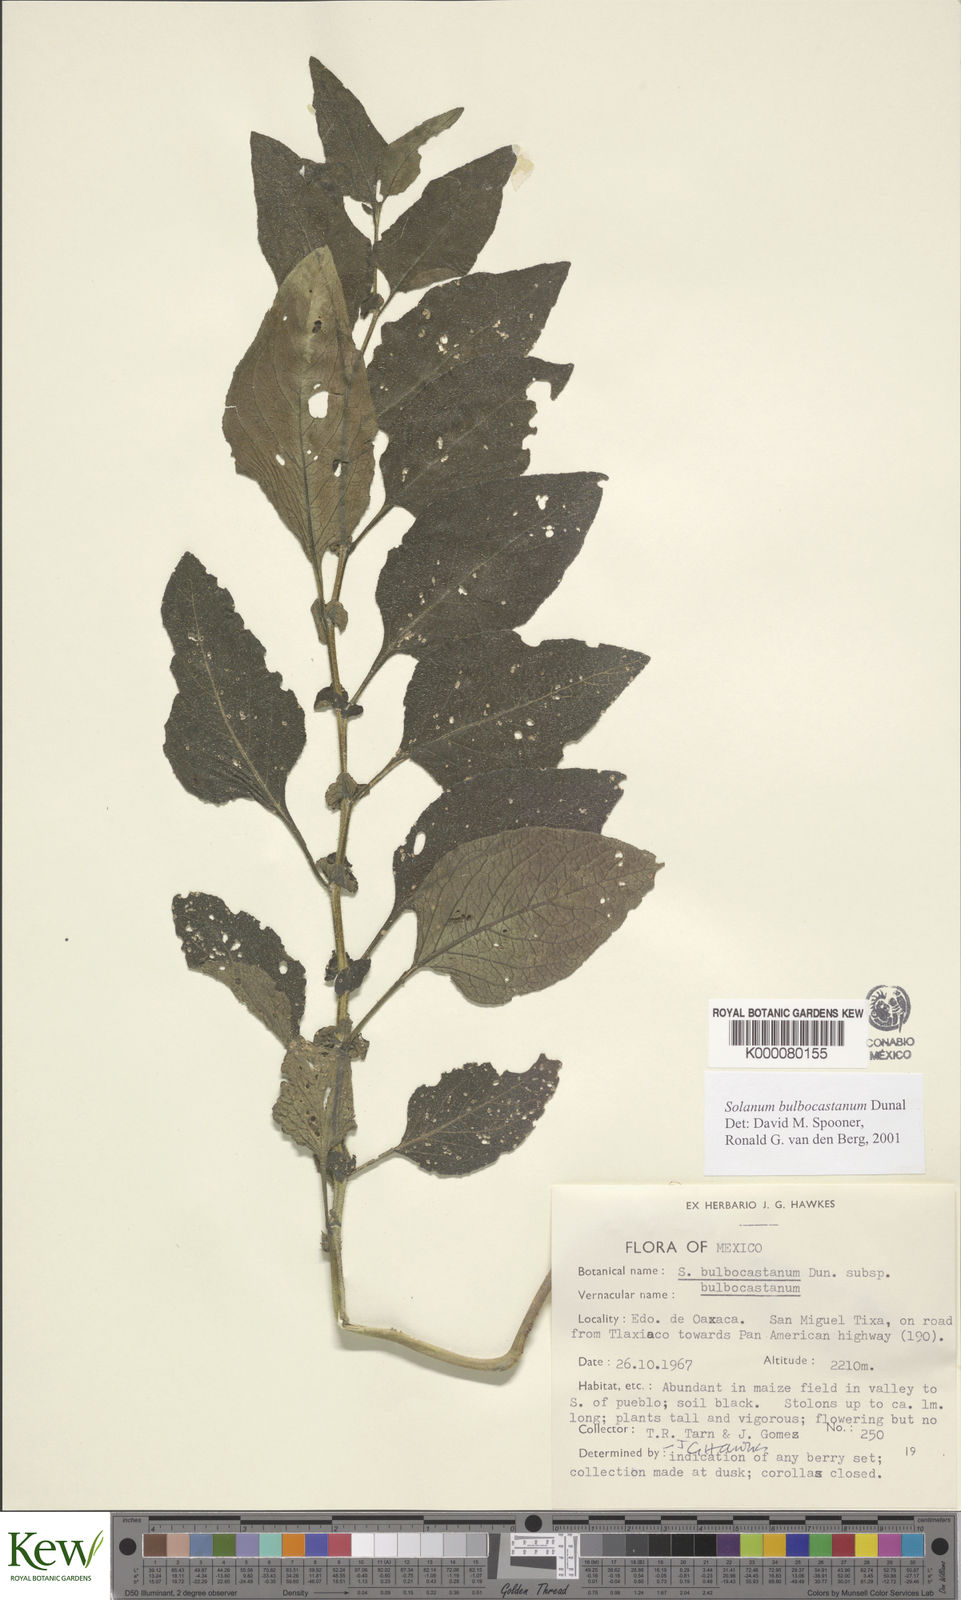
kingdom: Plantae
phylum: Tracheophyta
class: Magnoliopsida
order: Solanales
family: Solanaceae
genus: Solanum
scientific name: Solanum bulbocastanum
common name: Ornamental nightshade
